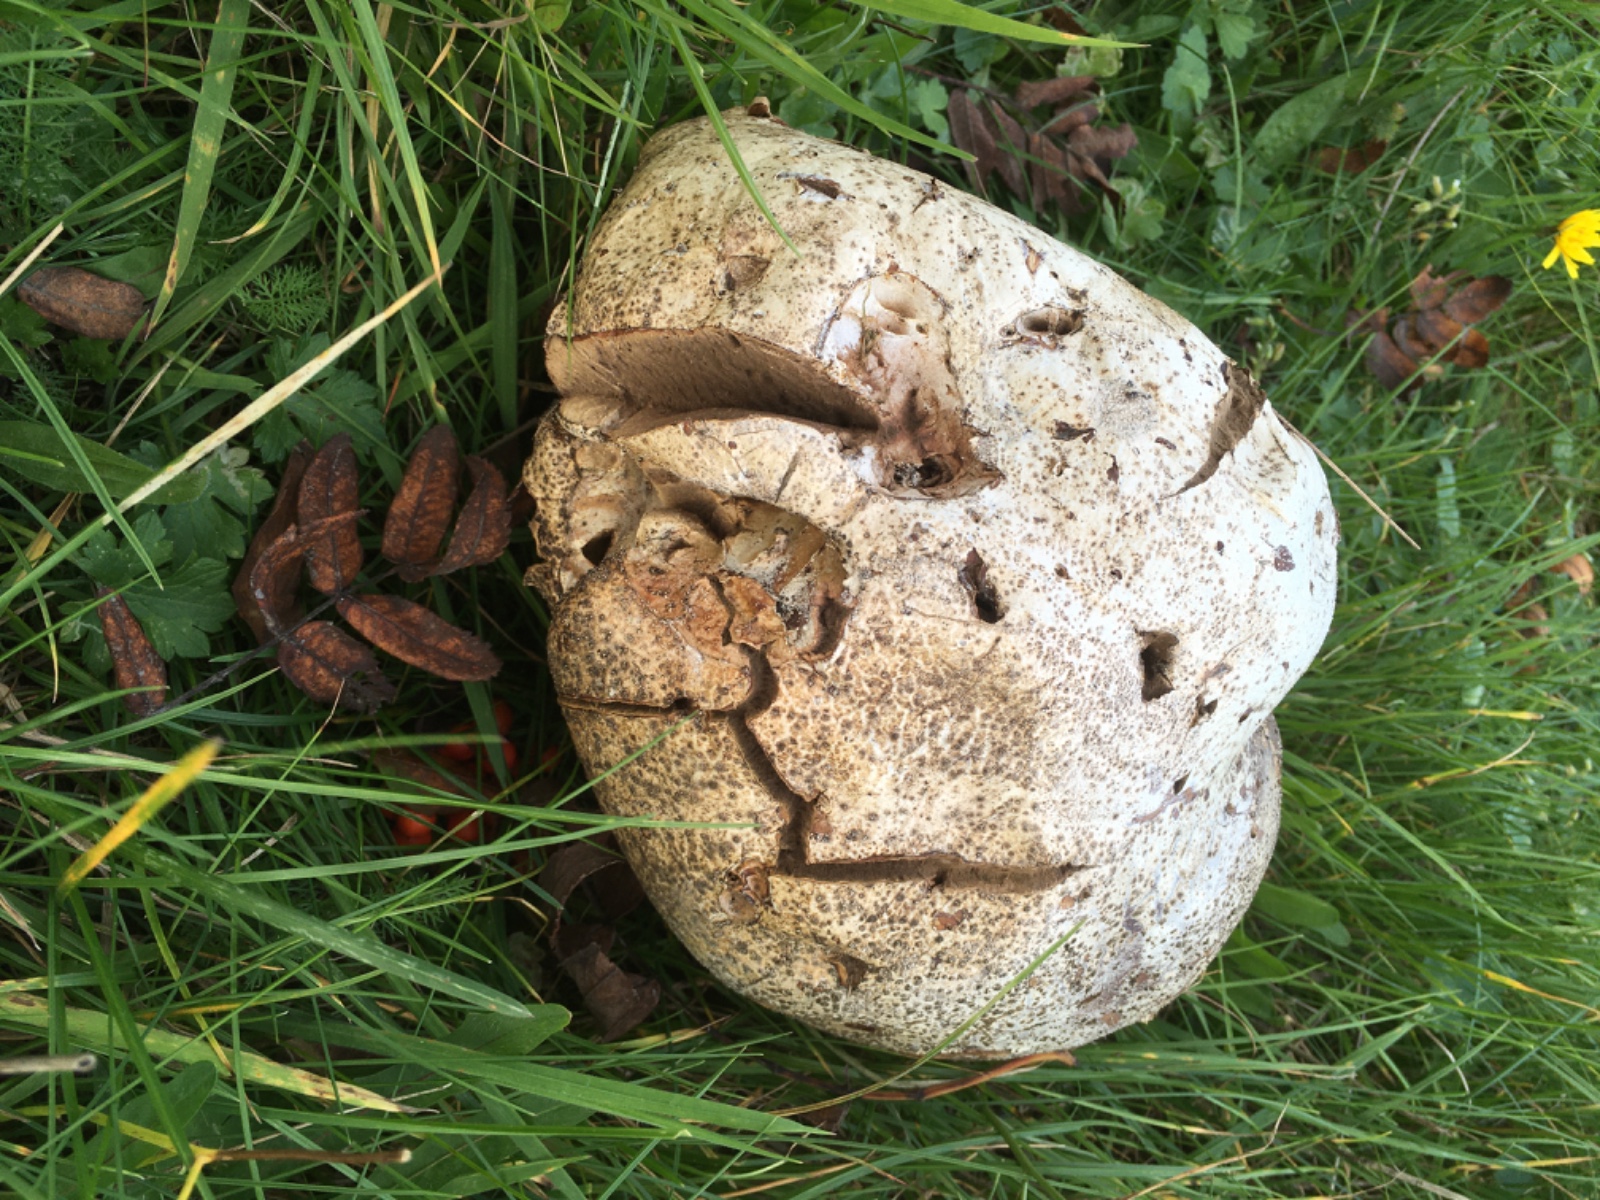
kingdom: Fungi
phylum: Basidiomycota
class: Agaricomycetes
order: Agaricales
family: Lycoperdaceae
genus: Calvatia
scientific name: Calvatia gigantea
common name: kæmpestøvbold
